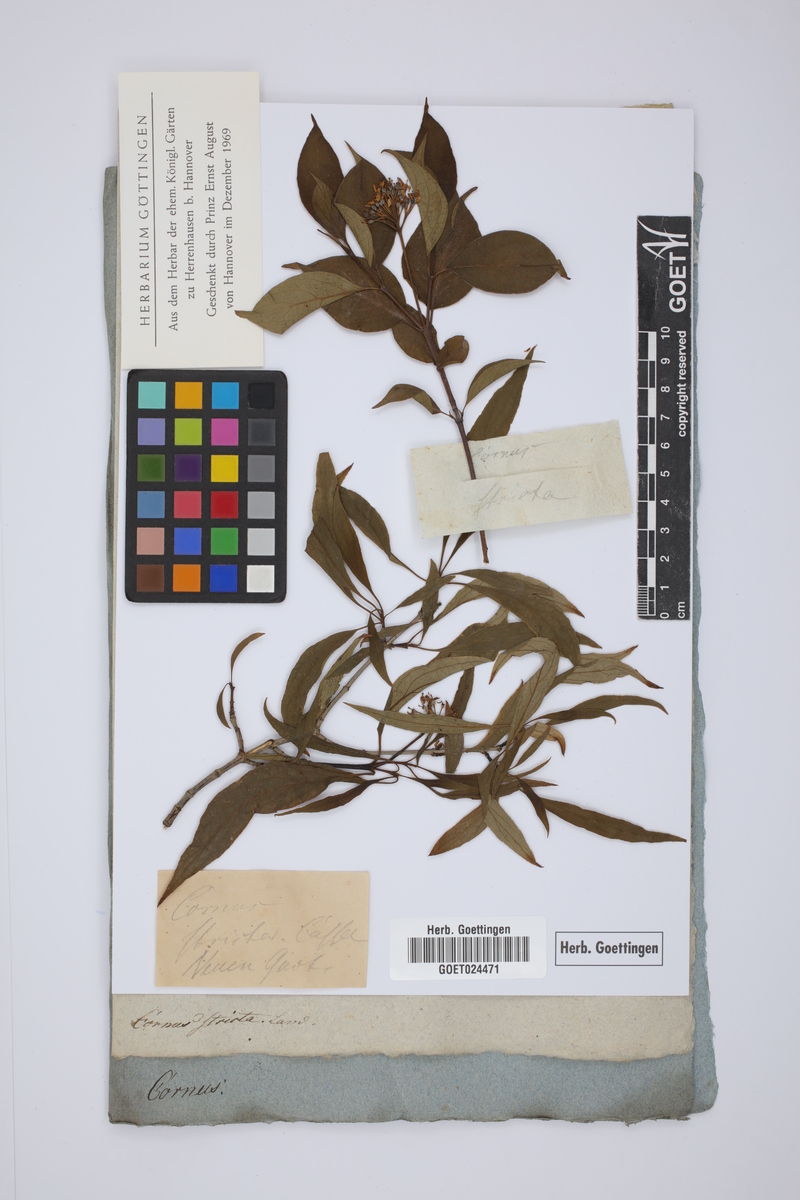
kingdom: Plantae
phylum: Tracheophyta
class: Magnoliopsida
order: Cornales
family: Cornaceae
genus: Cornus
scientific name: Cornus foemina
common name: Swamp dogwood
